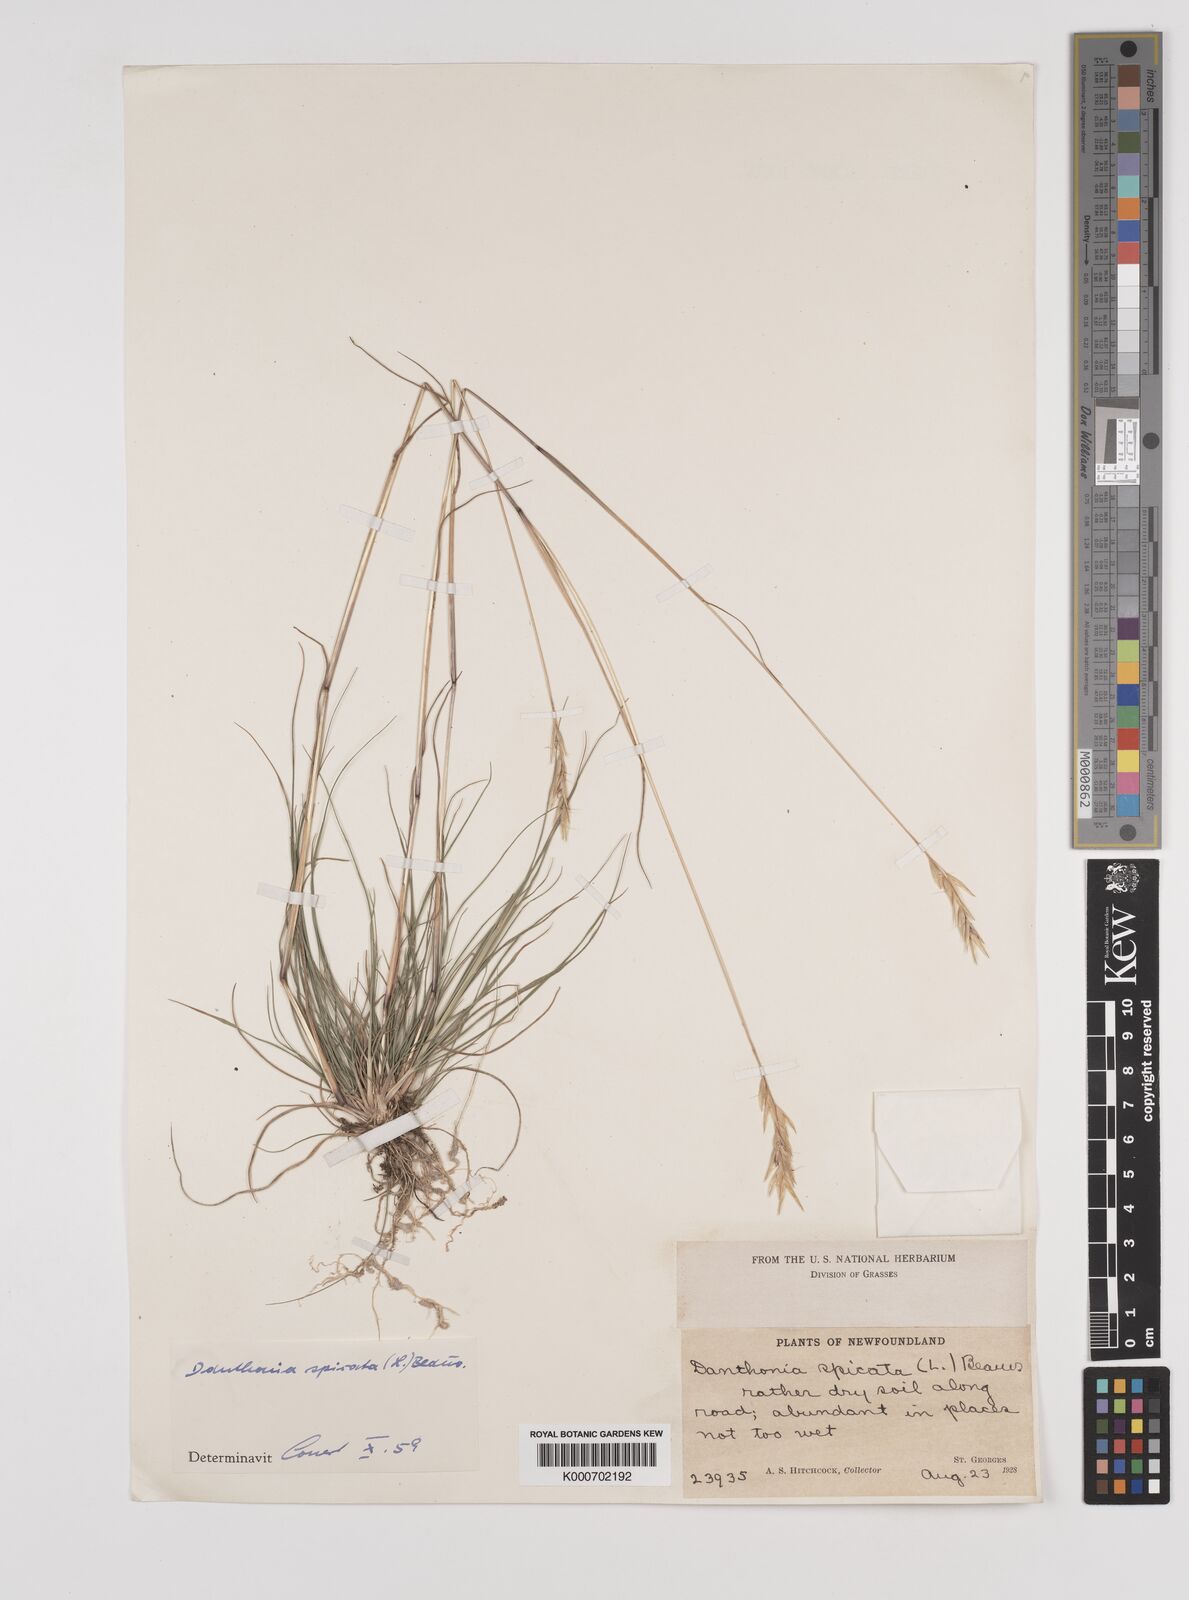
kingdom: Plantae
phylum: Tracheophyta
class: Liliopsida
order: Poales
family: Poaceae
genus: Danthonia
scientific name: Danthonia spicata
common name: Common wild oatgrass
